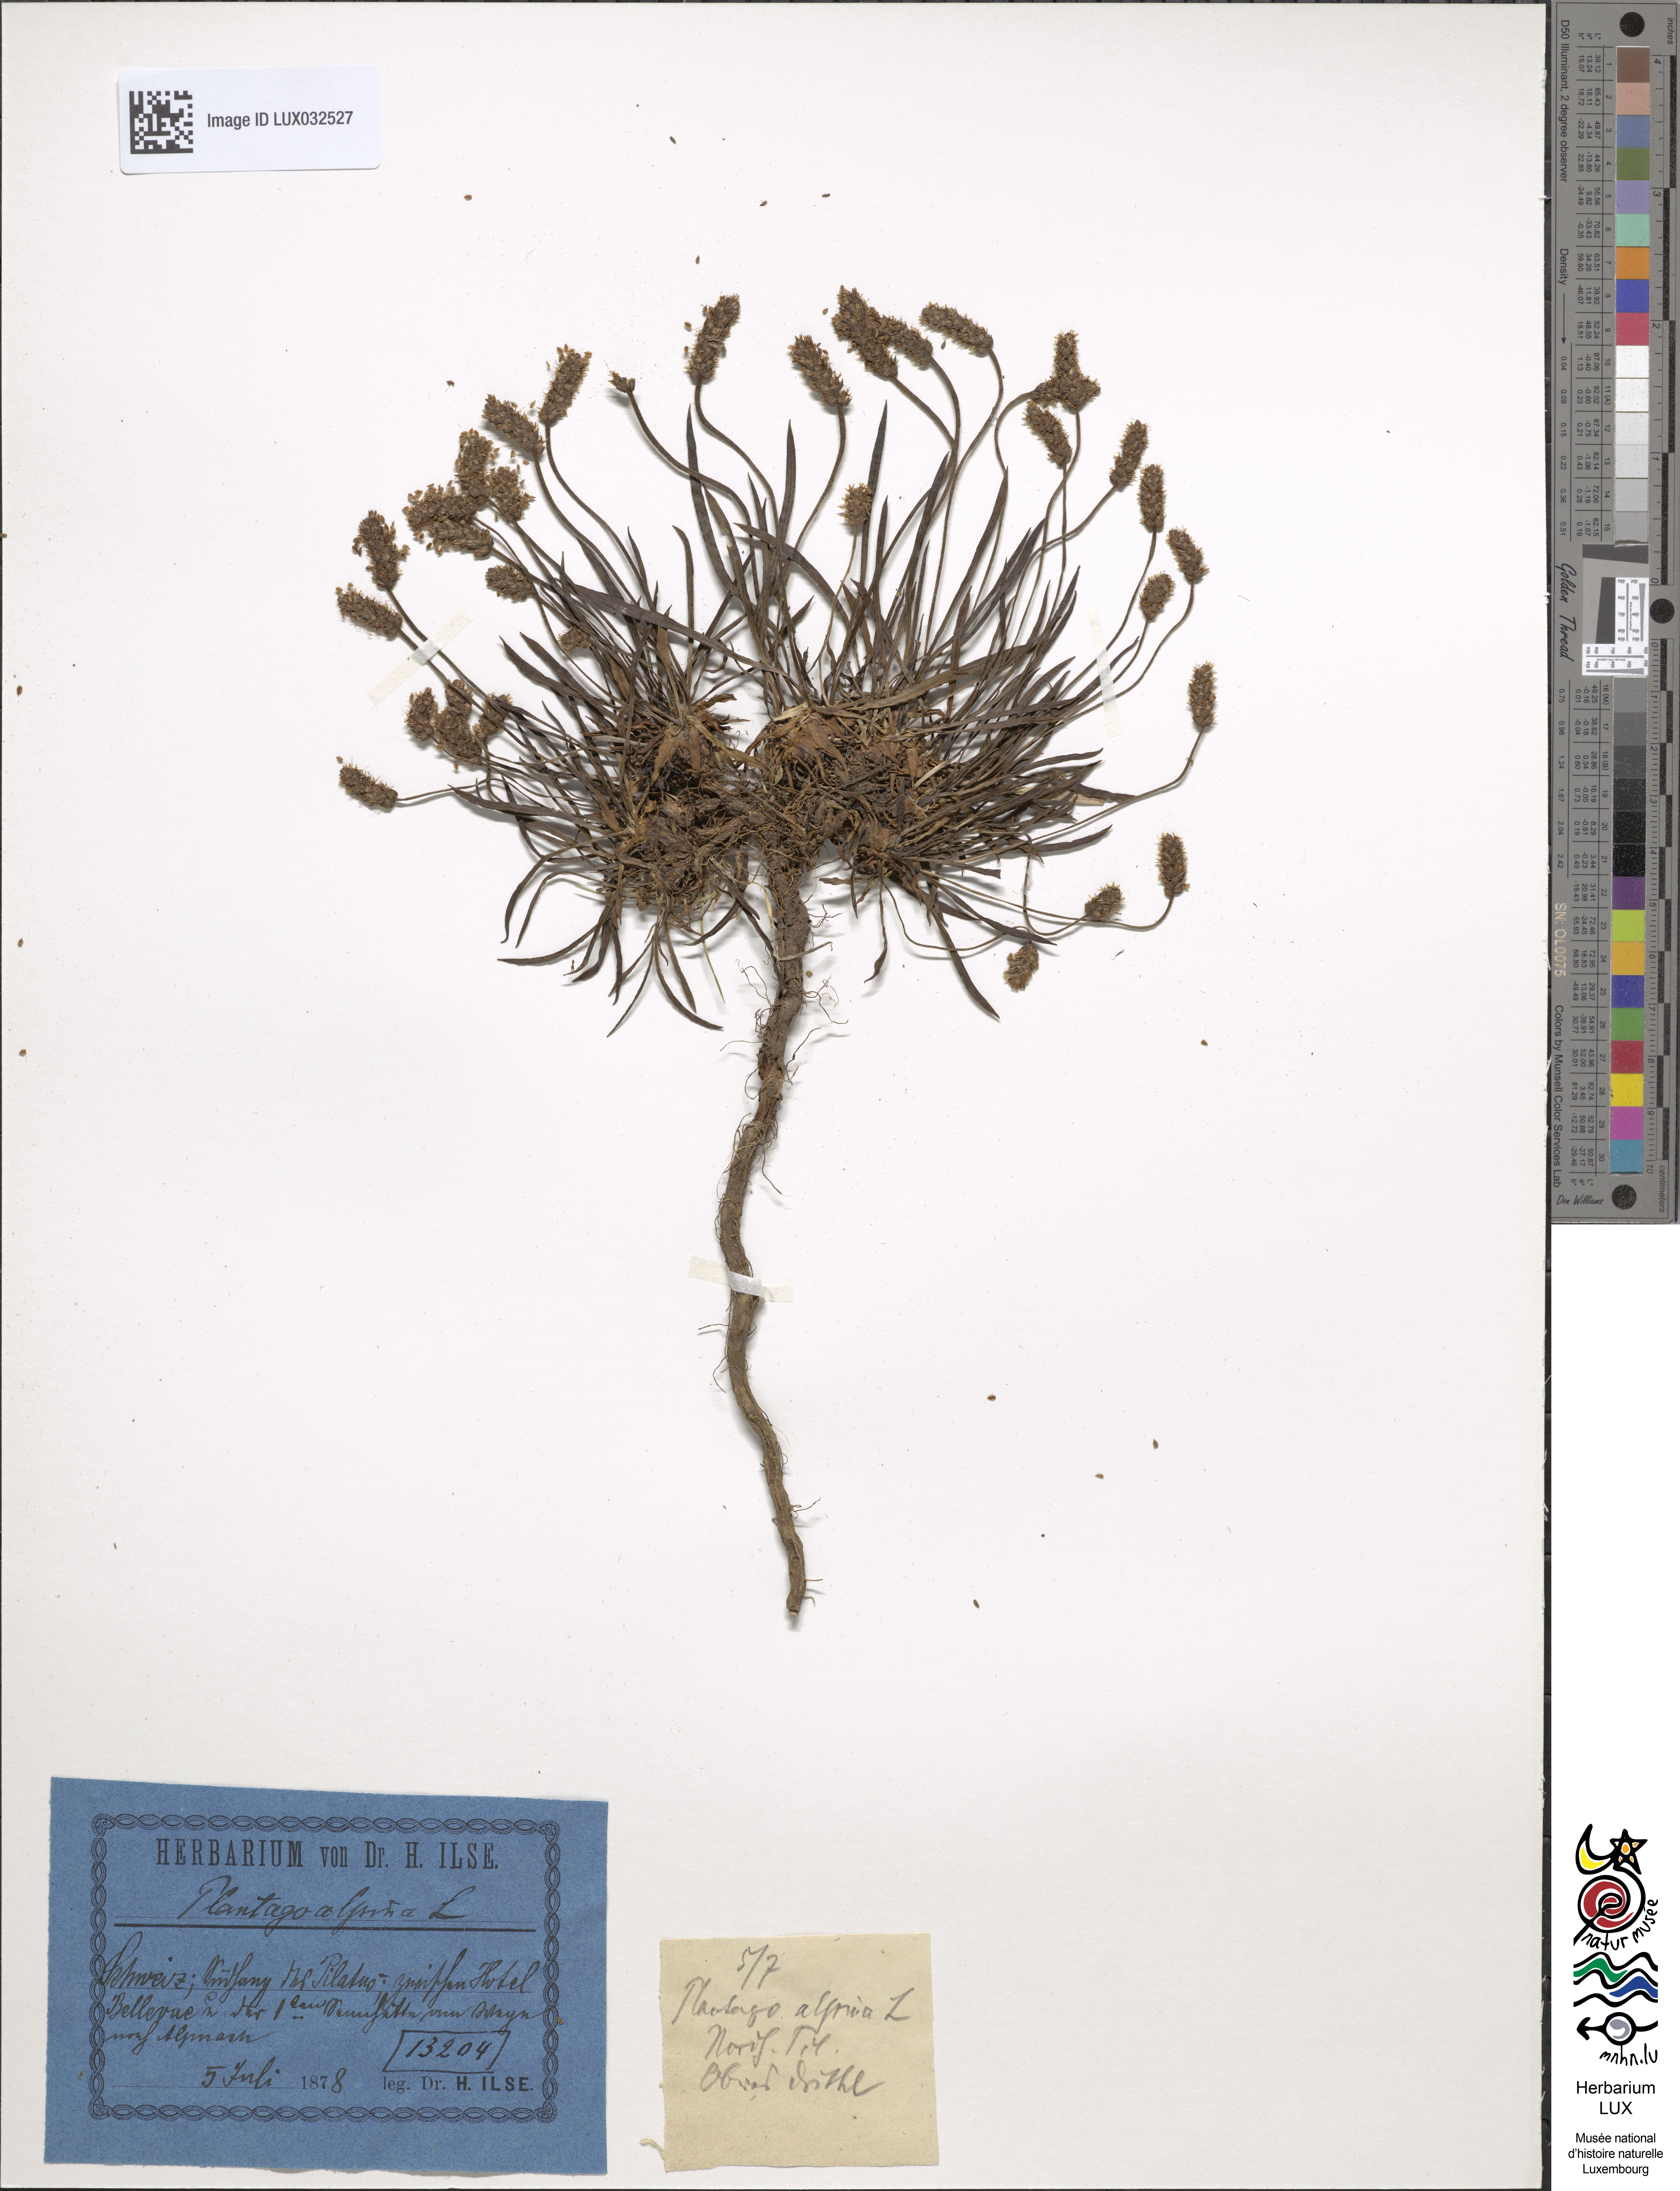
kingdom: Plantae
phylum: Tracheophyta
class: Magnoliopsida
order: Lamiales
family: Plantaginaceae
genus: Plantago
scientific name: Plantago alpina
